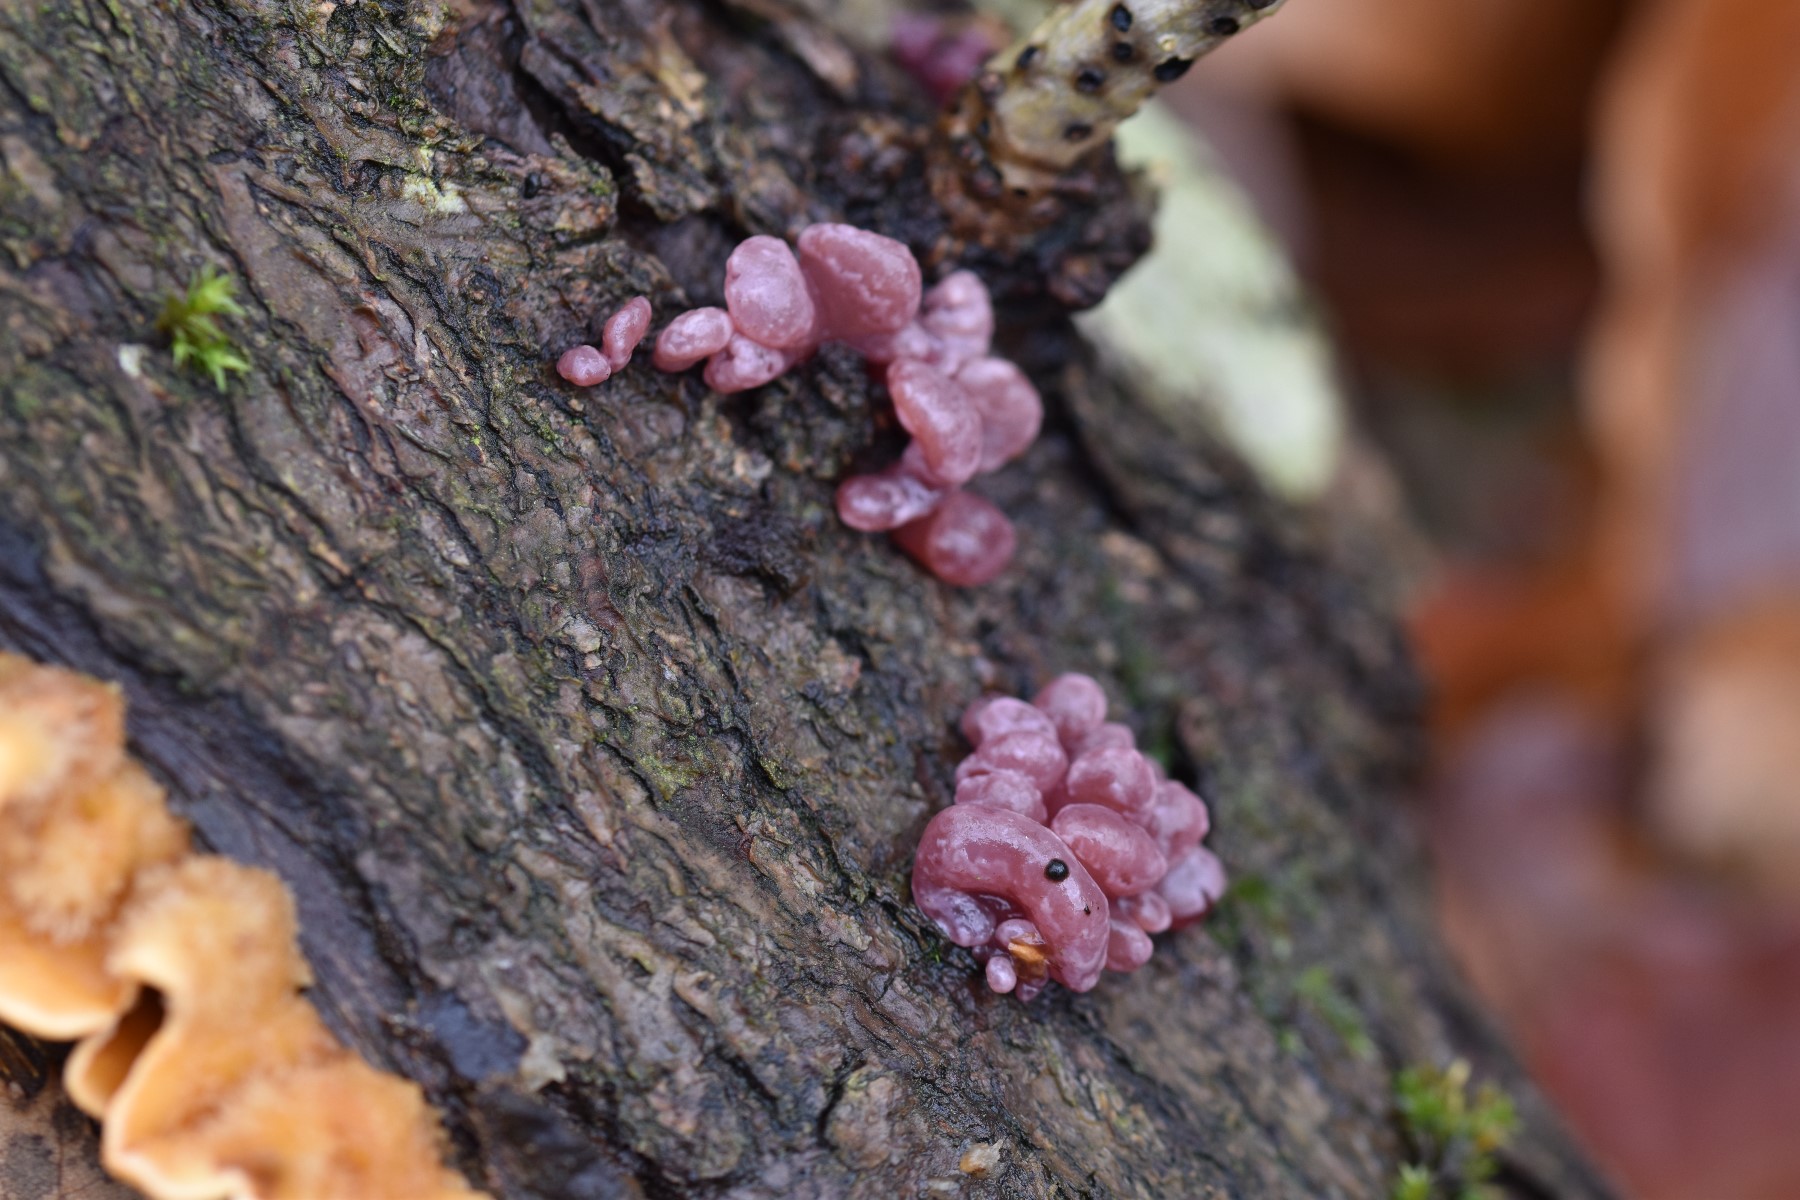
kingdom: Fungi
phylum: Ascomycota
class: Leotiomycetes
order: Helotiales
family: Gelatinodiscaceae
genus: Ascocoryne
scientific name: Ascocoryne sarcoides
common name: rødlilla sejskive
